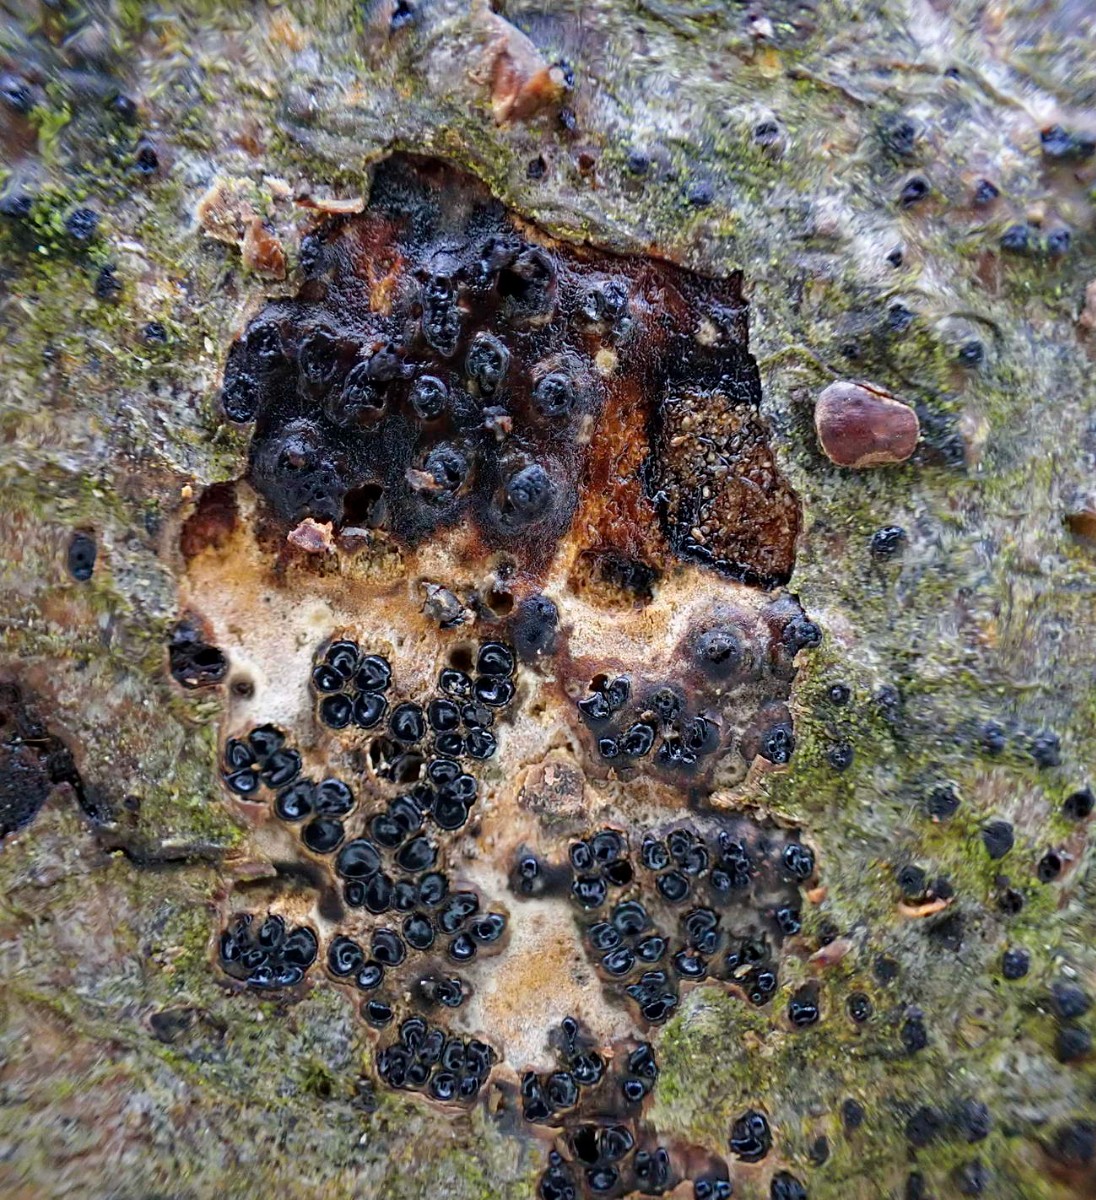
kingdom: Fungi
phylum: Ascomycota
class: Sordariomycetes
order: Xylariales
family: Diatrypaceae
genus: Eutypella
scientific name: Eutypella quaternata
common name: bøge-korsprik
